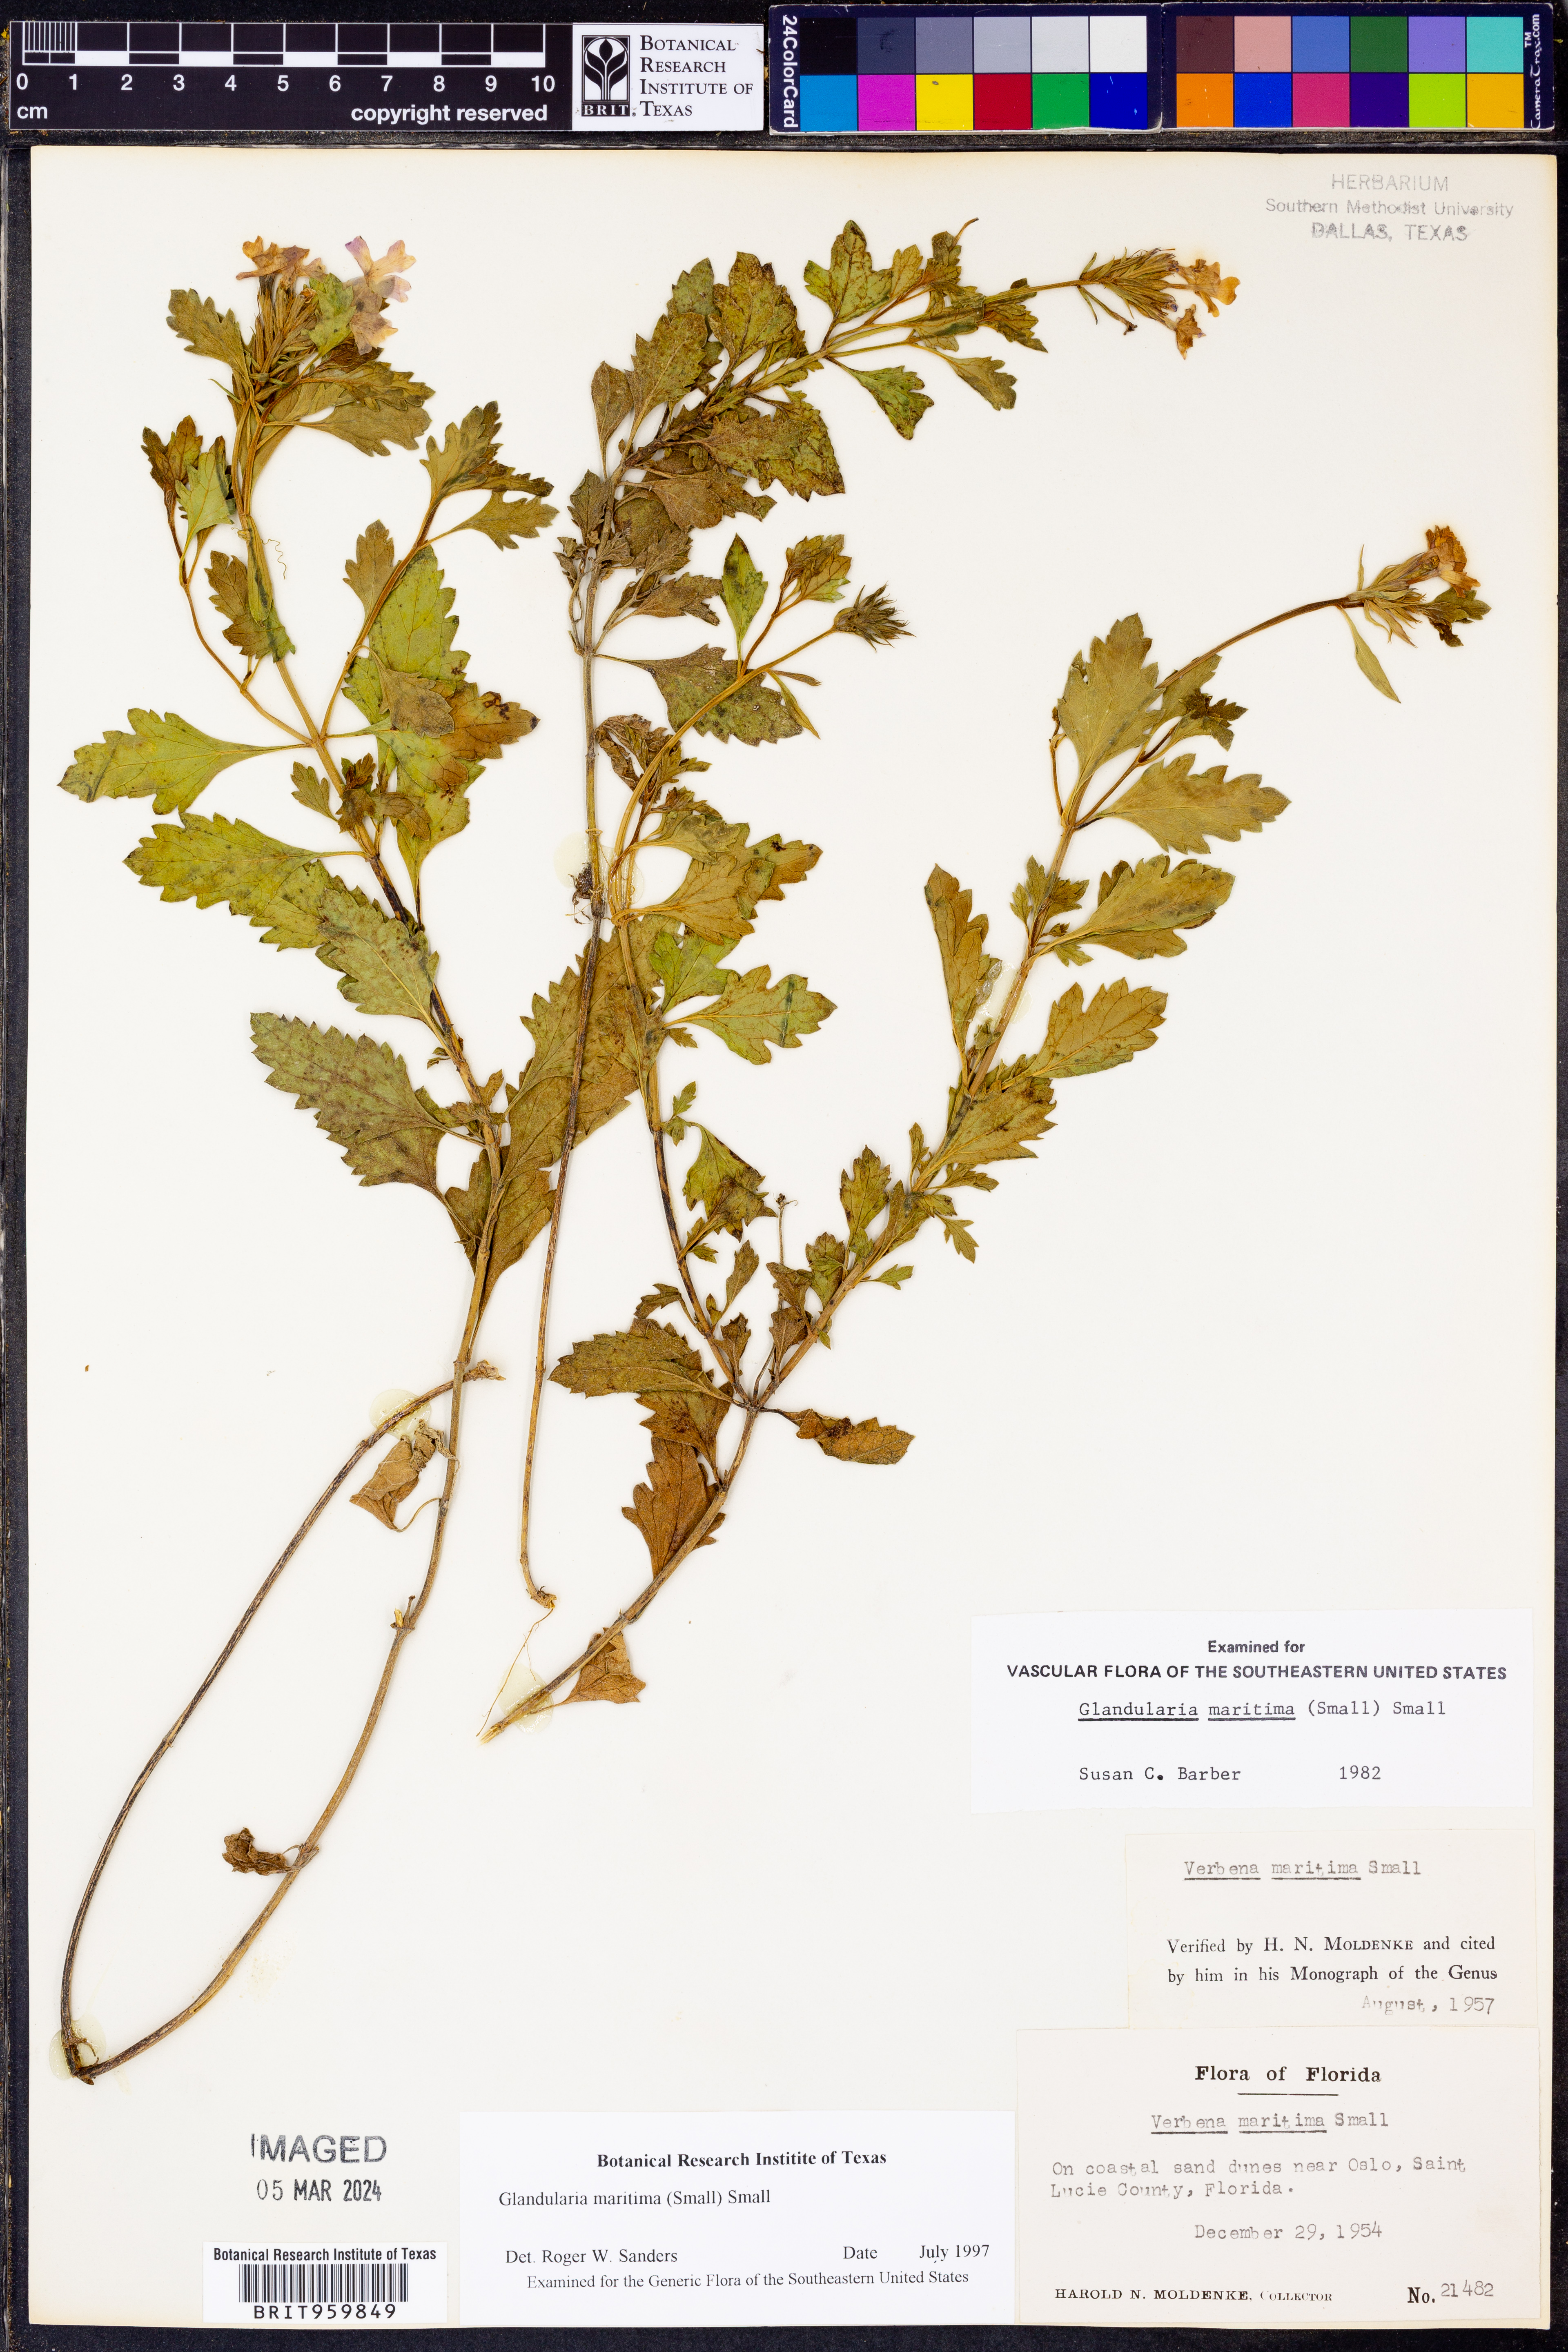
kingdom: Plantae
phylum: Tracheophyta
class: Magnoliopsida
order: Lamiales
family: Verbenaceae
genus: Verbena
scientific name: Verbena maritima
